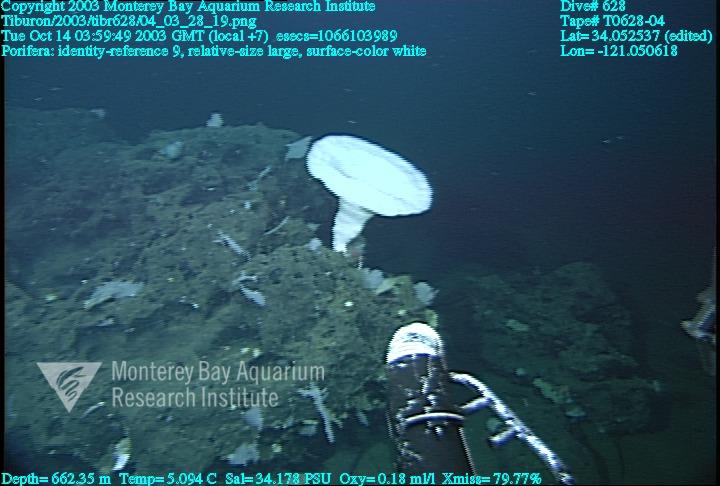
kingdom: Animalia
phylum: Porifera
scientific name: Porifera
